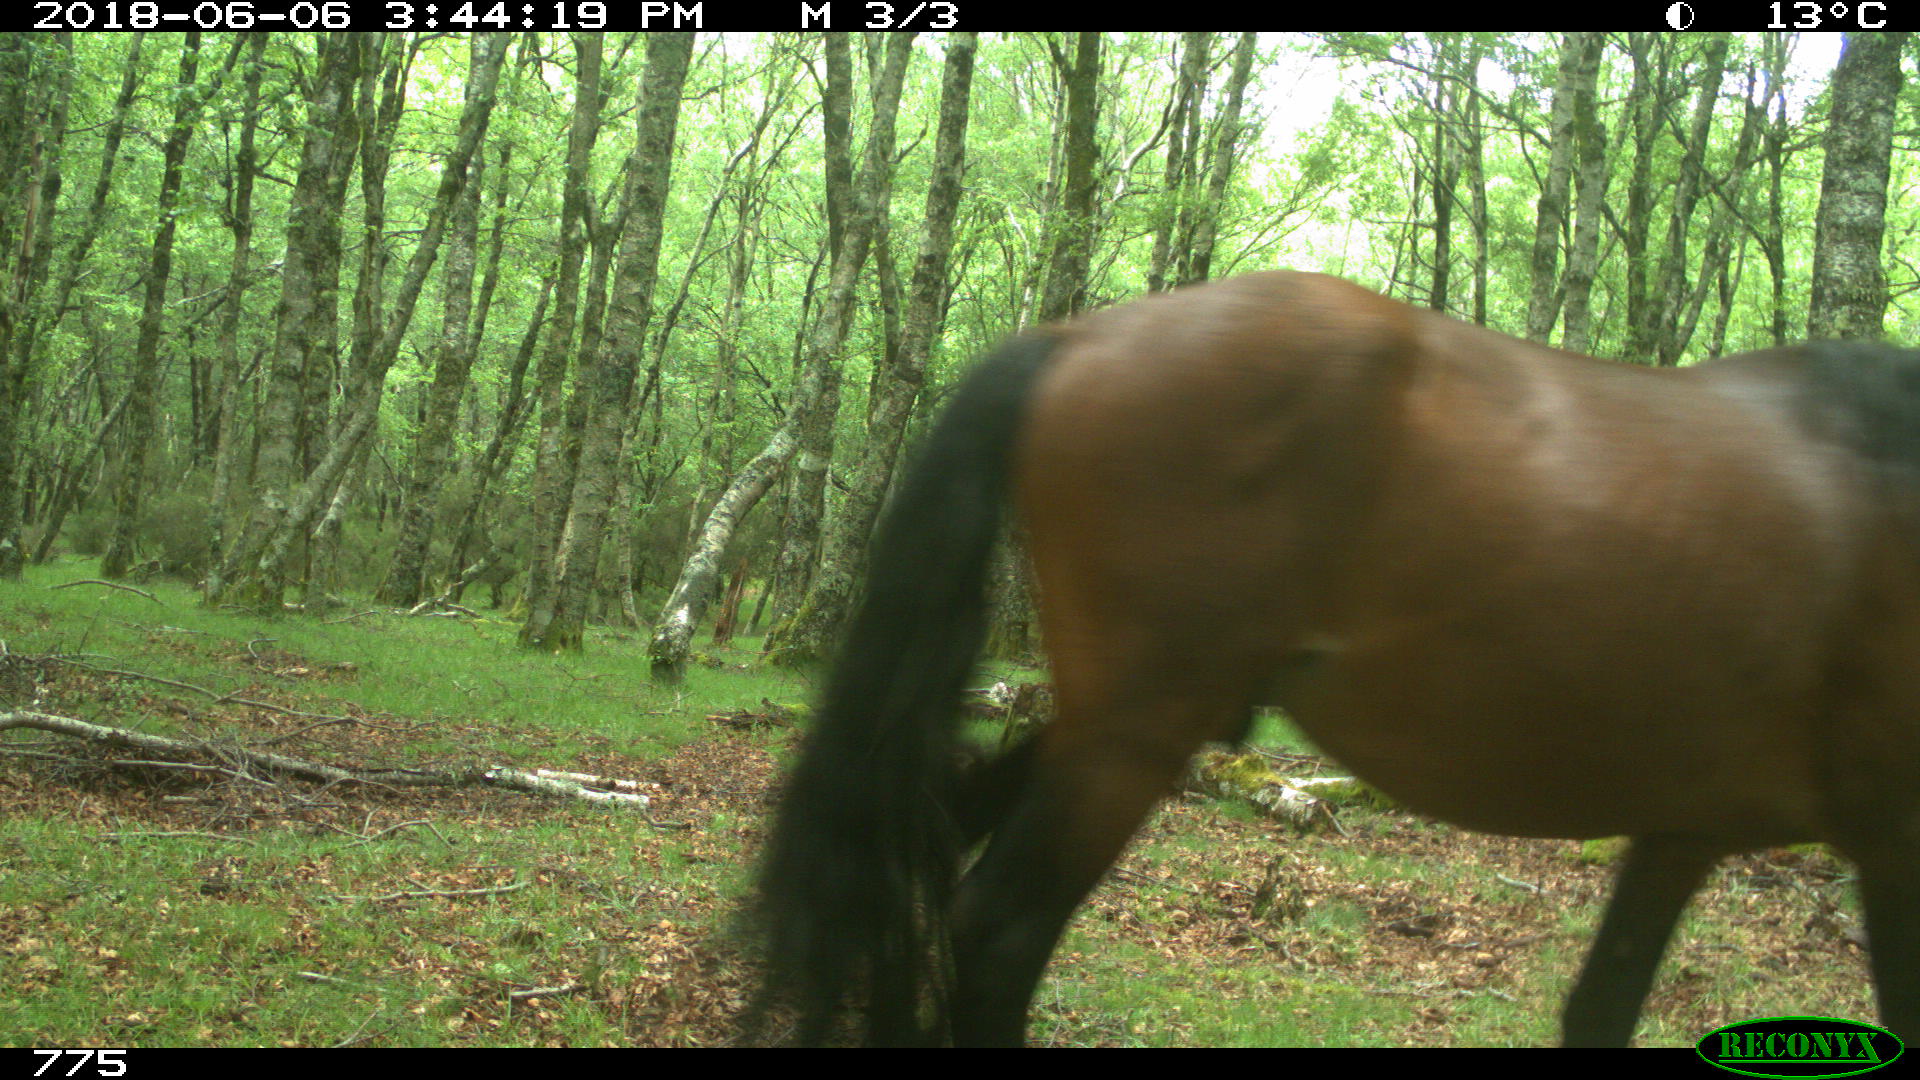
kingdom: Animalia
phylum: Chordata
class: Mammalia
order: Perissodactyla
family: Equidae
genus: Equus
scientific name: Equus caballus
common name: Horse
